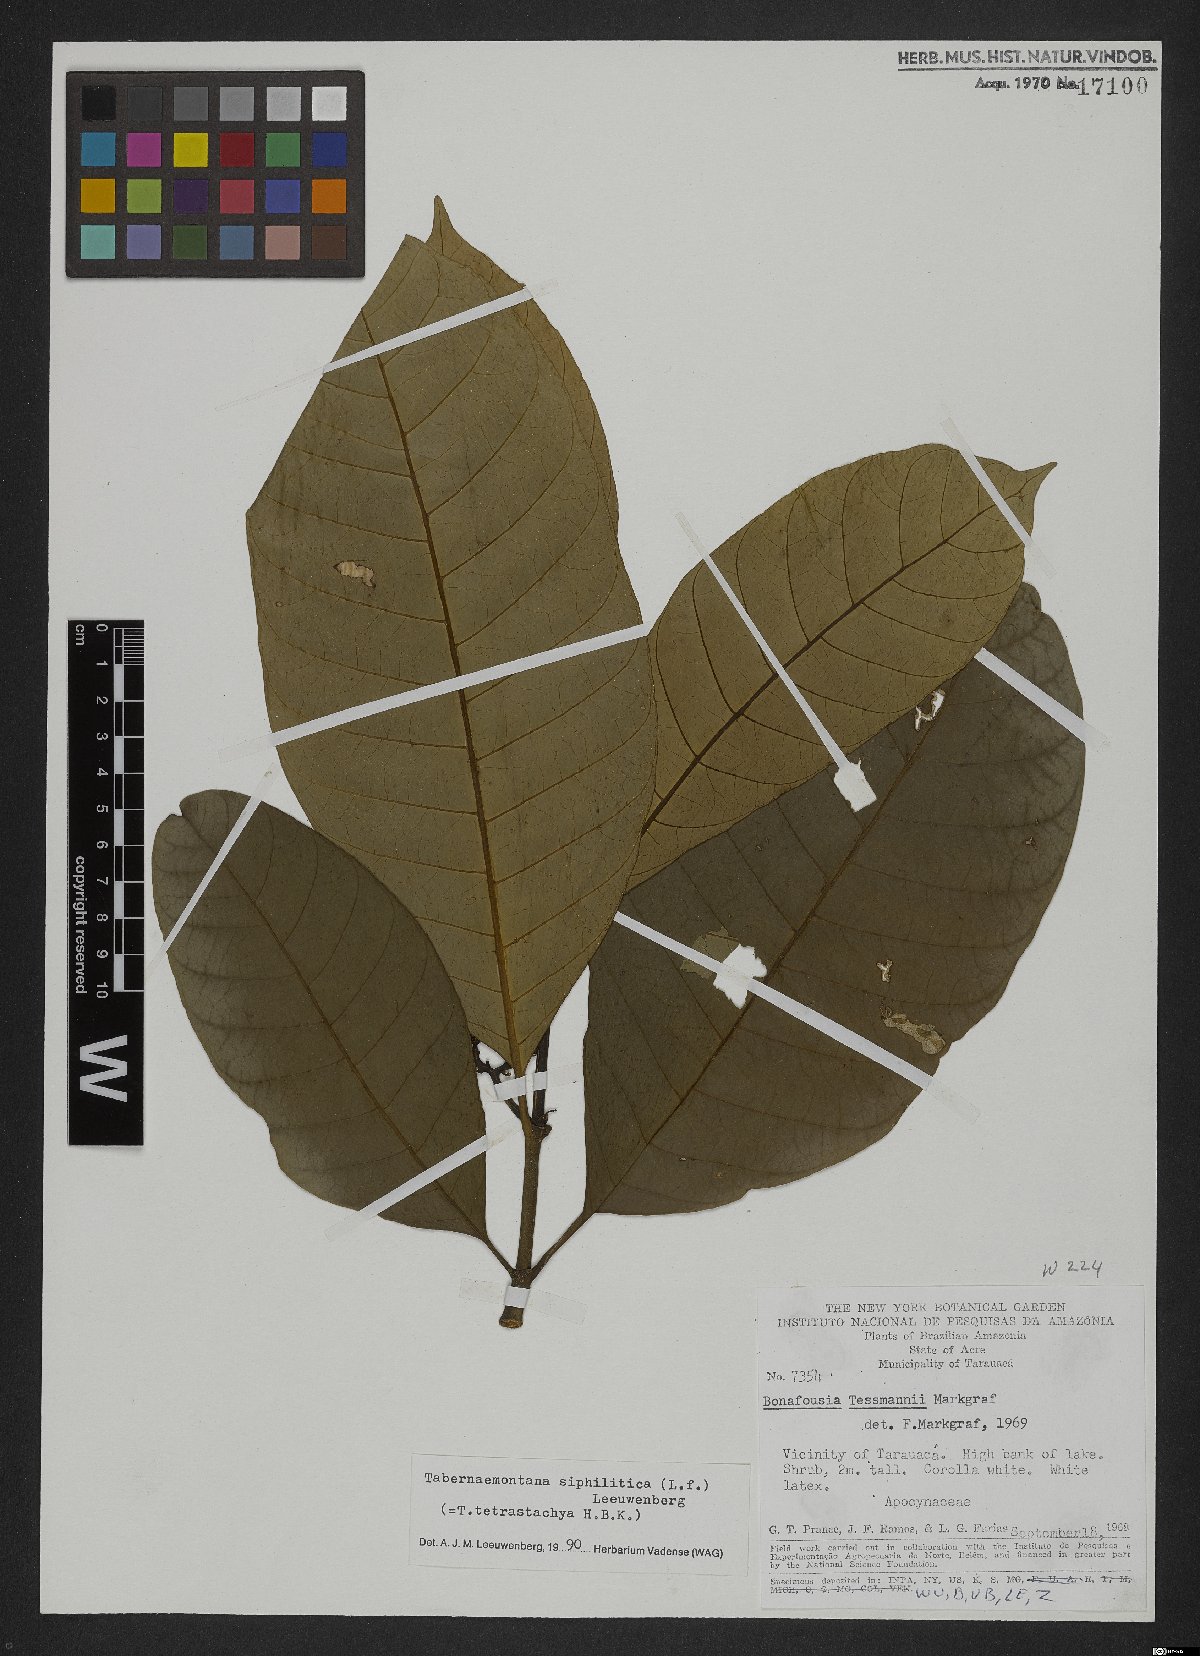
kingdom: Plantae
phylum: Tracheophyta
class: Magnoliopsida
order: Gentianales
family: Apocynaceae
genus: Tabernaemontana
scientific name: Tabernaemontana siphilitica
